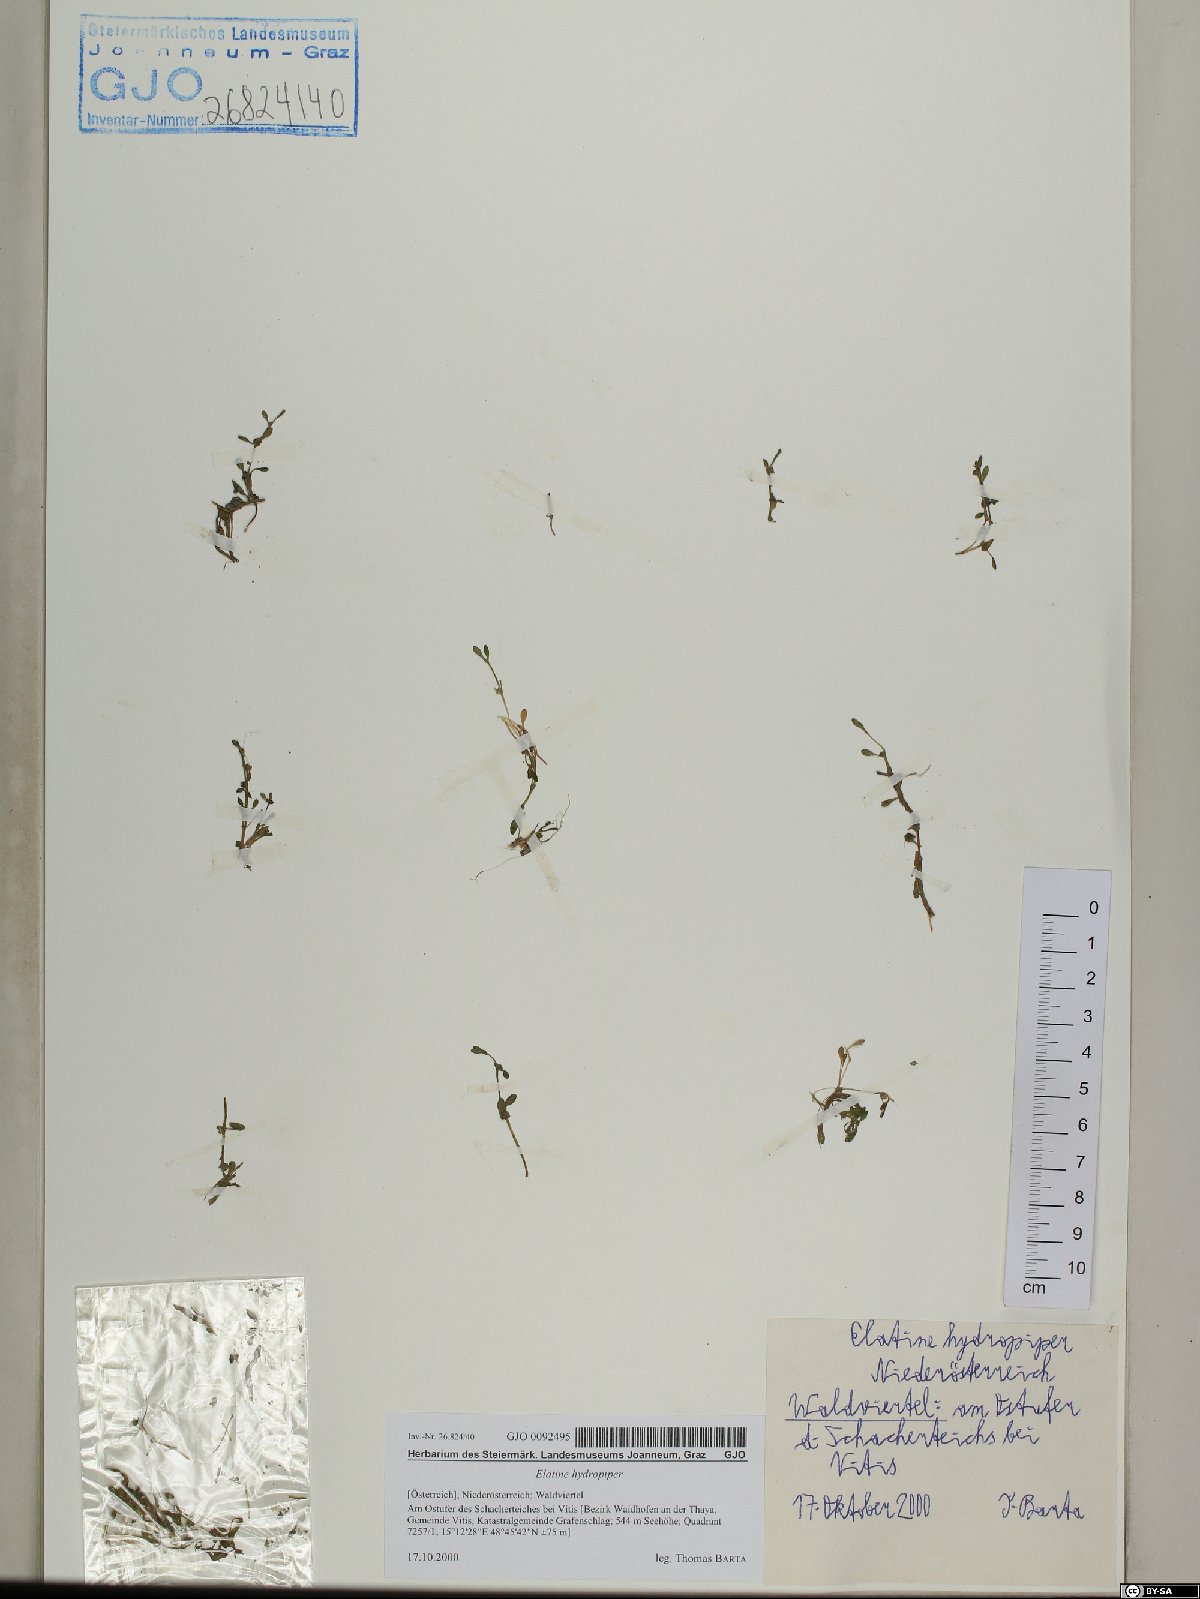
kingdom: Plantae
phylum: Tracheophyta
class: Magnoliopsida
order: Malpighiales
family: Elatinaceae
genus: Elatine
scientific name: Elatine hydropiper
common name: Eight-stamened waterwort
